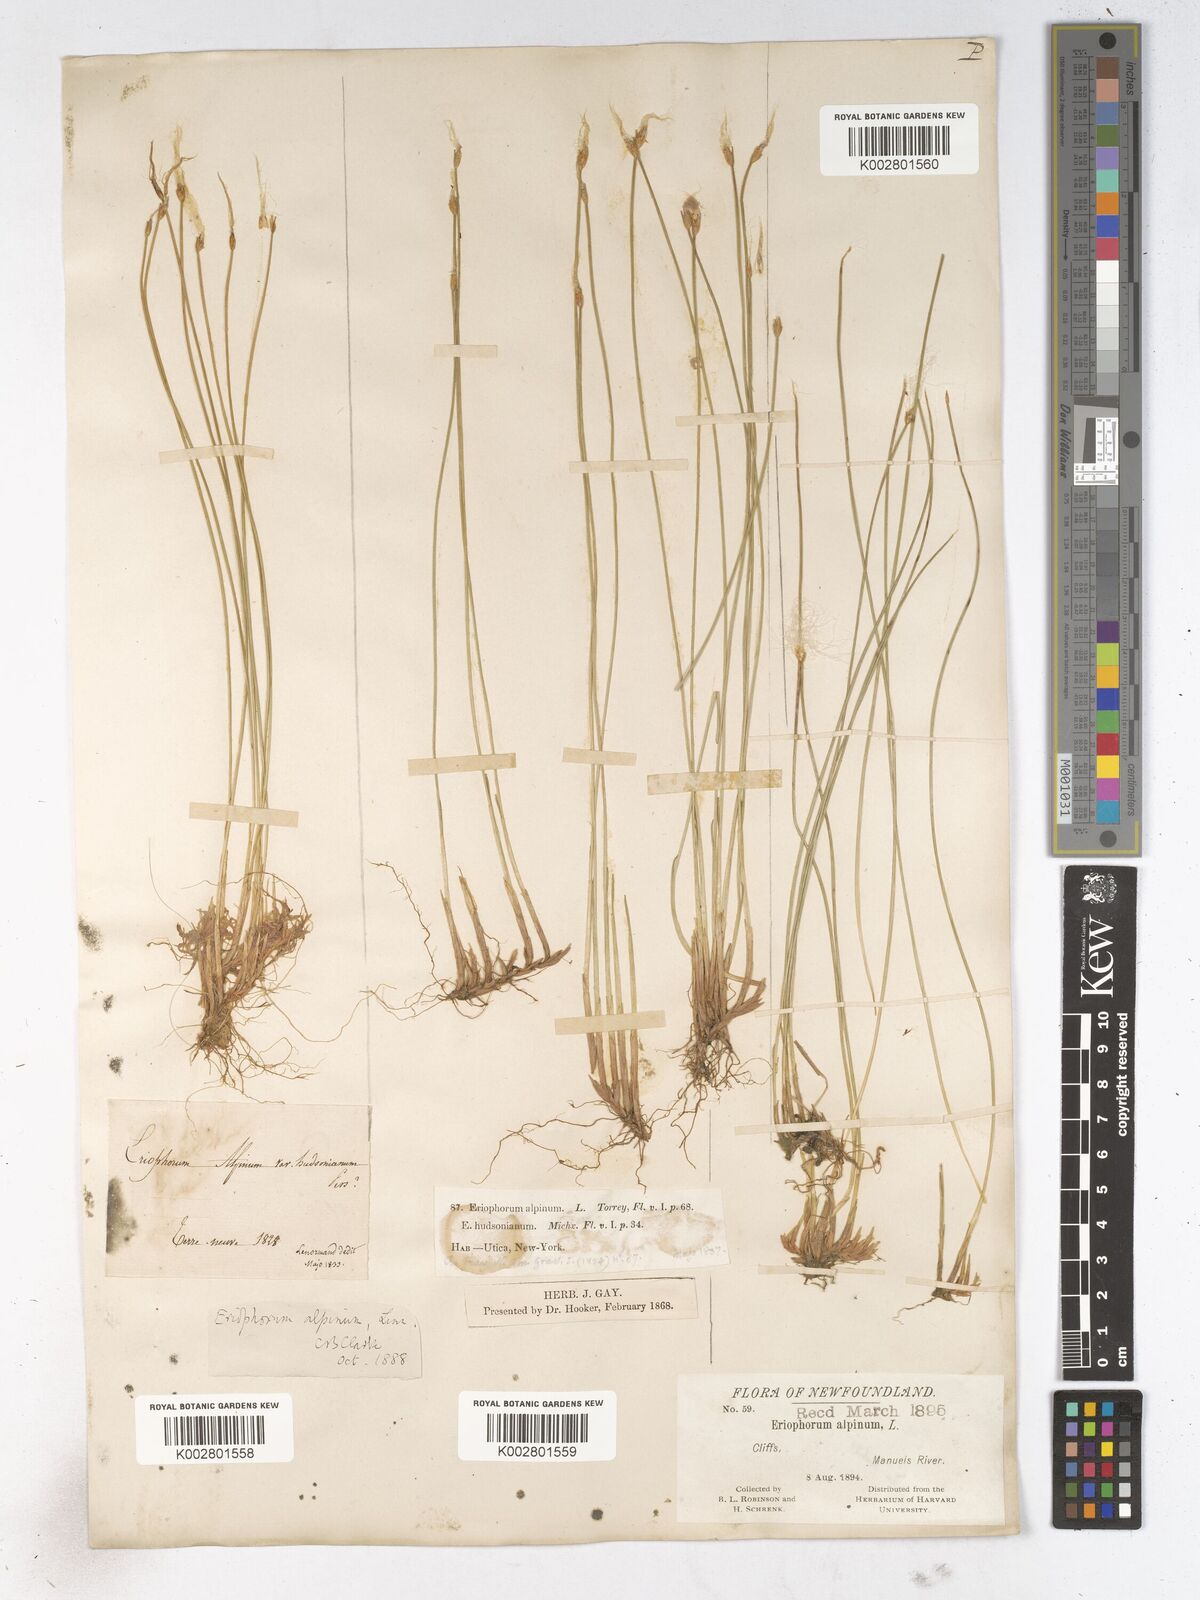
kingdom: Plantae
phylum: Tracheophyta
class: Liliopsida
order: Poales
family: Cyperaceae
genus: Trichophorum
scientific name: Trichophorum alpinum
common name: Alpine bulrush
